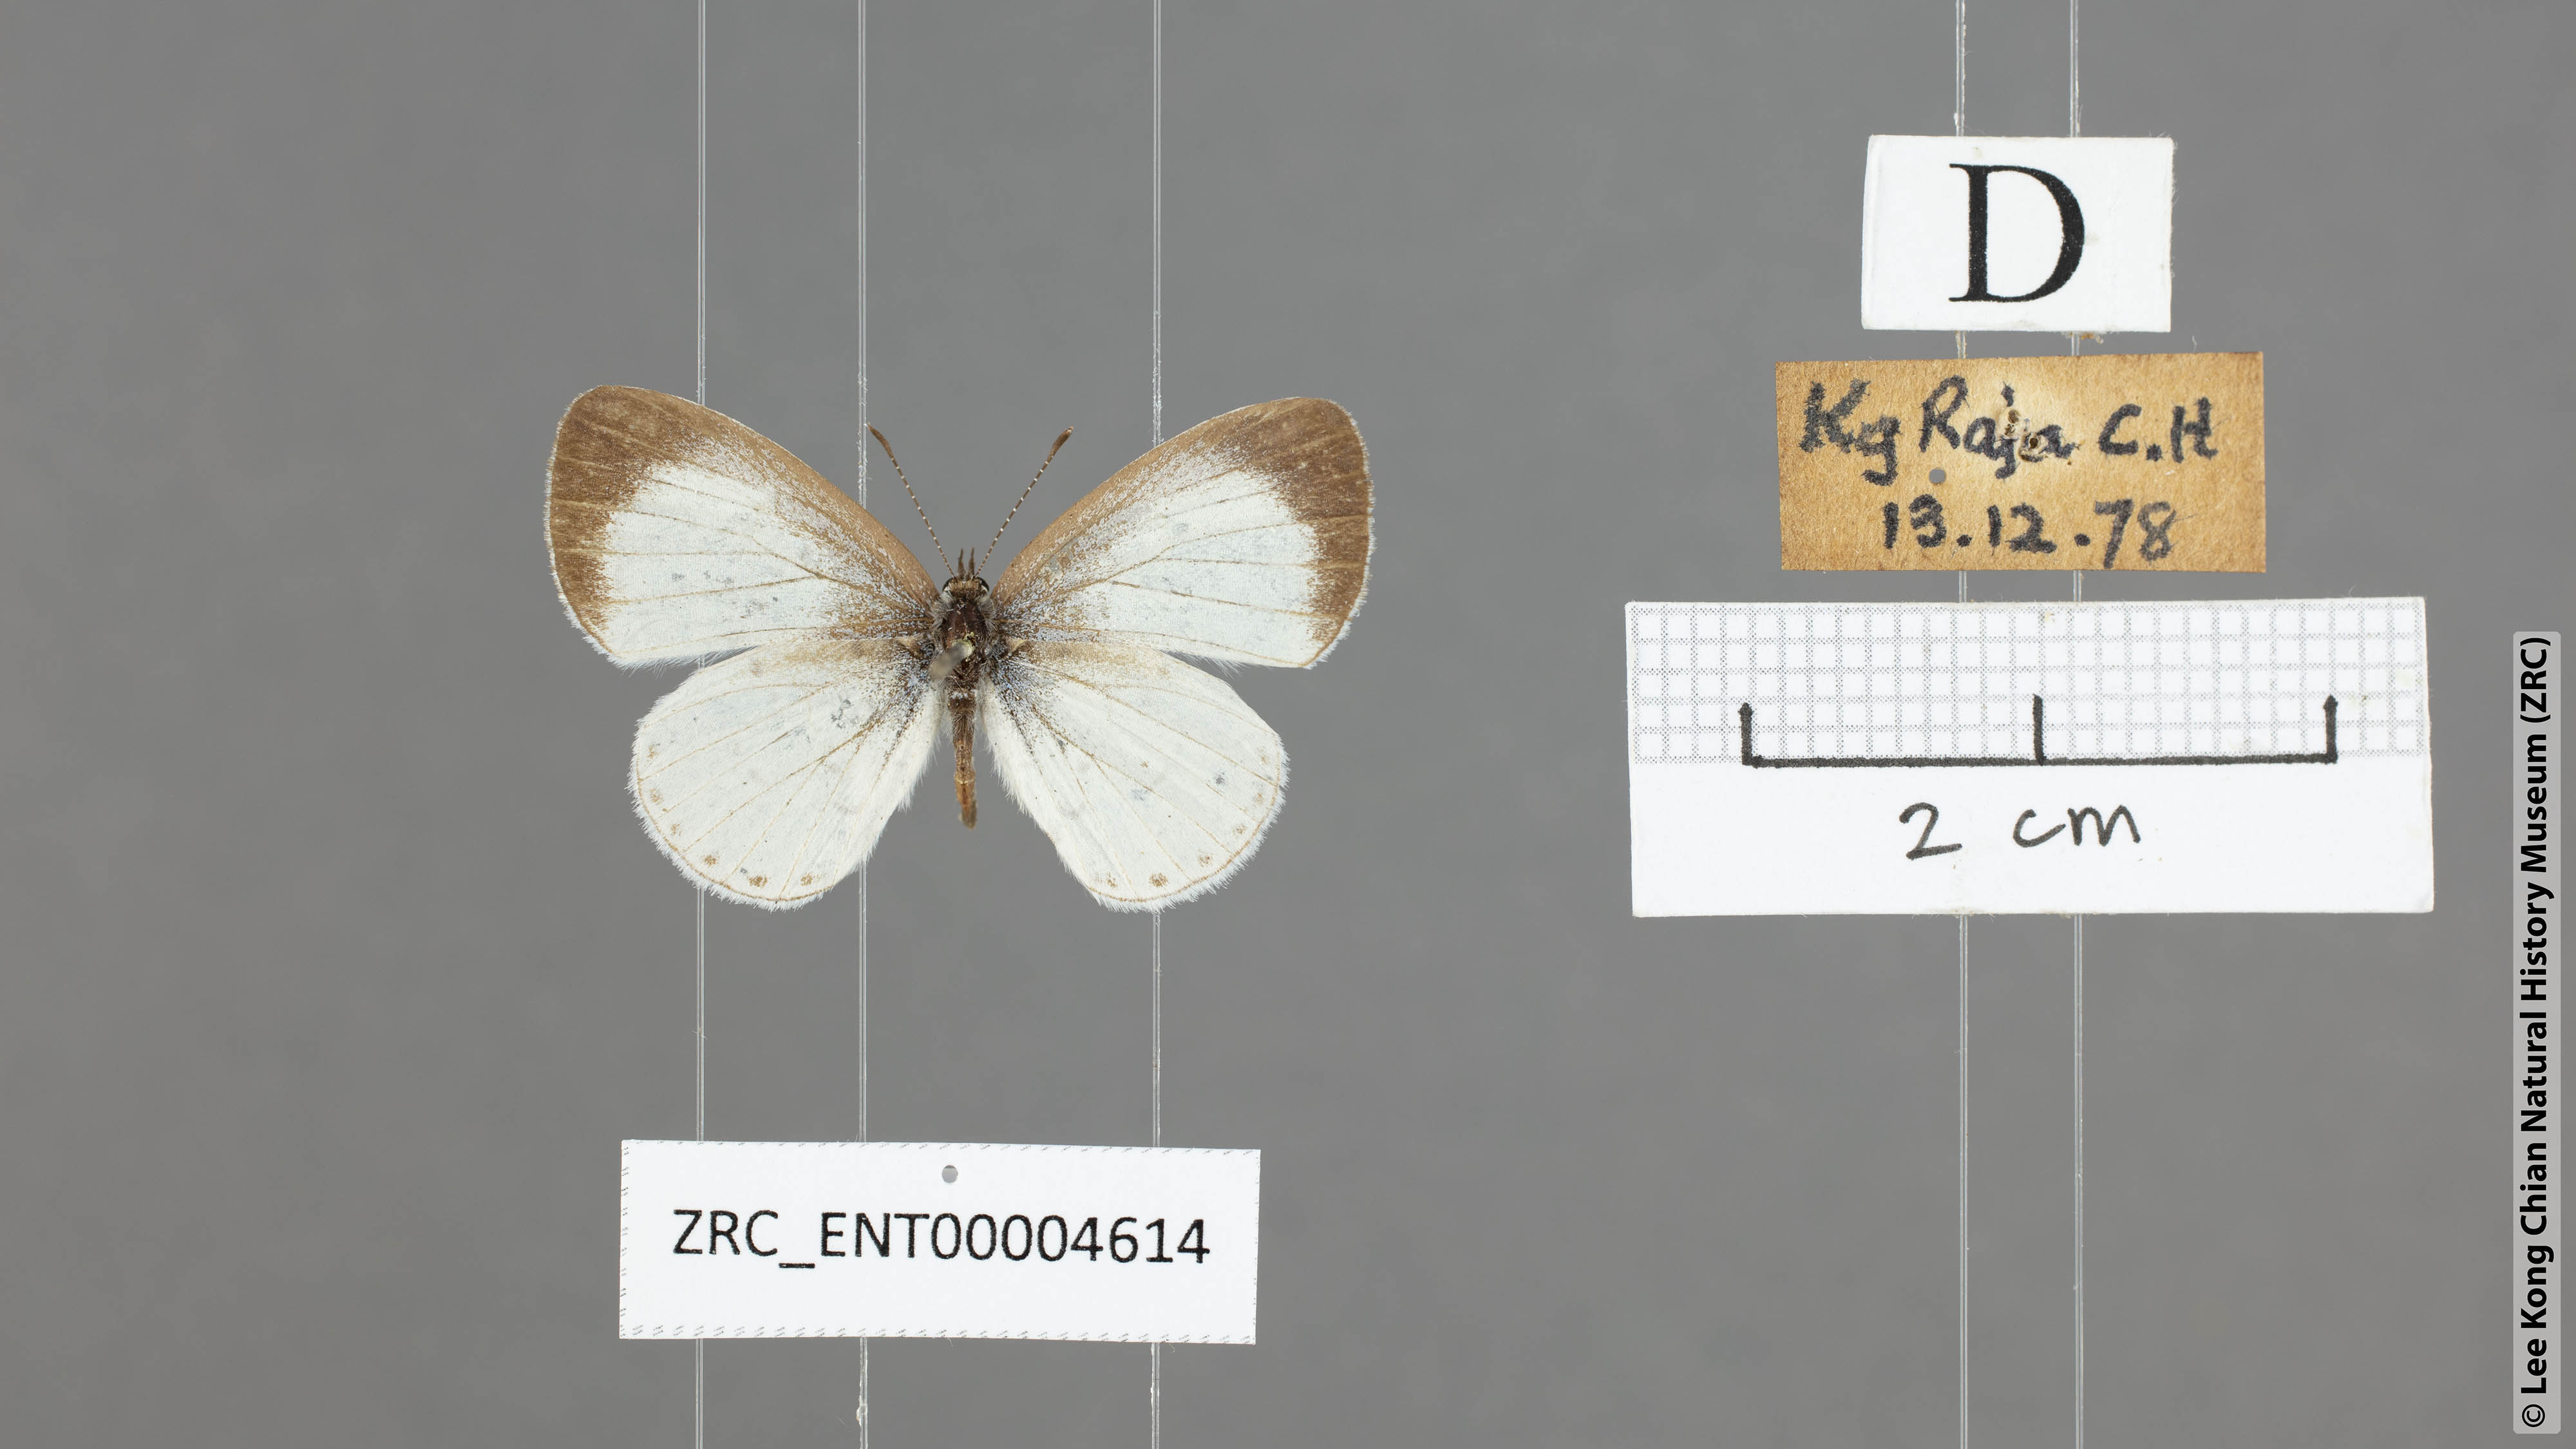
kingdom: Animalia
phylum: Arthropoda
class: Insecta
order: Lepidoptera
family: Lycaenidae
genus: Udara
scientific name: Udara akasa
